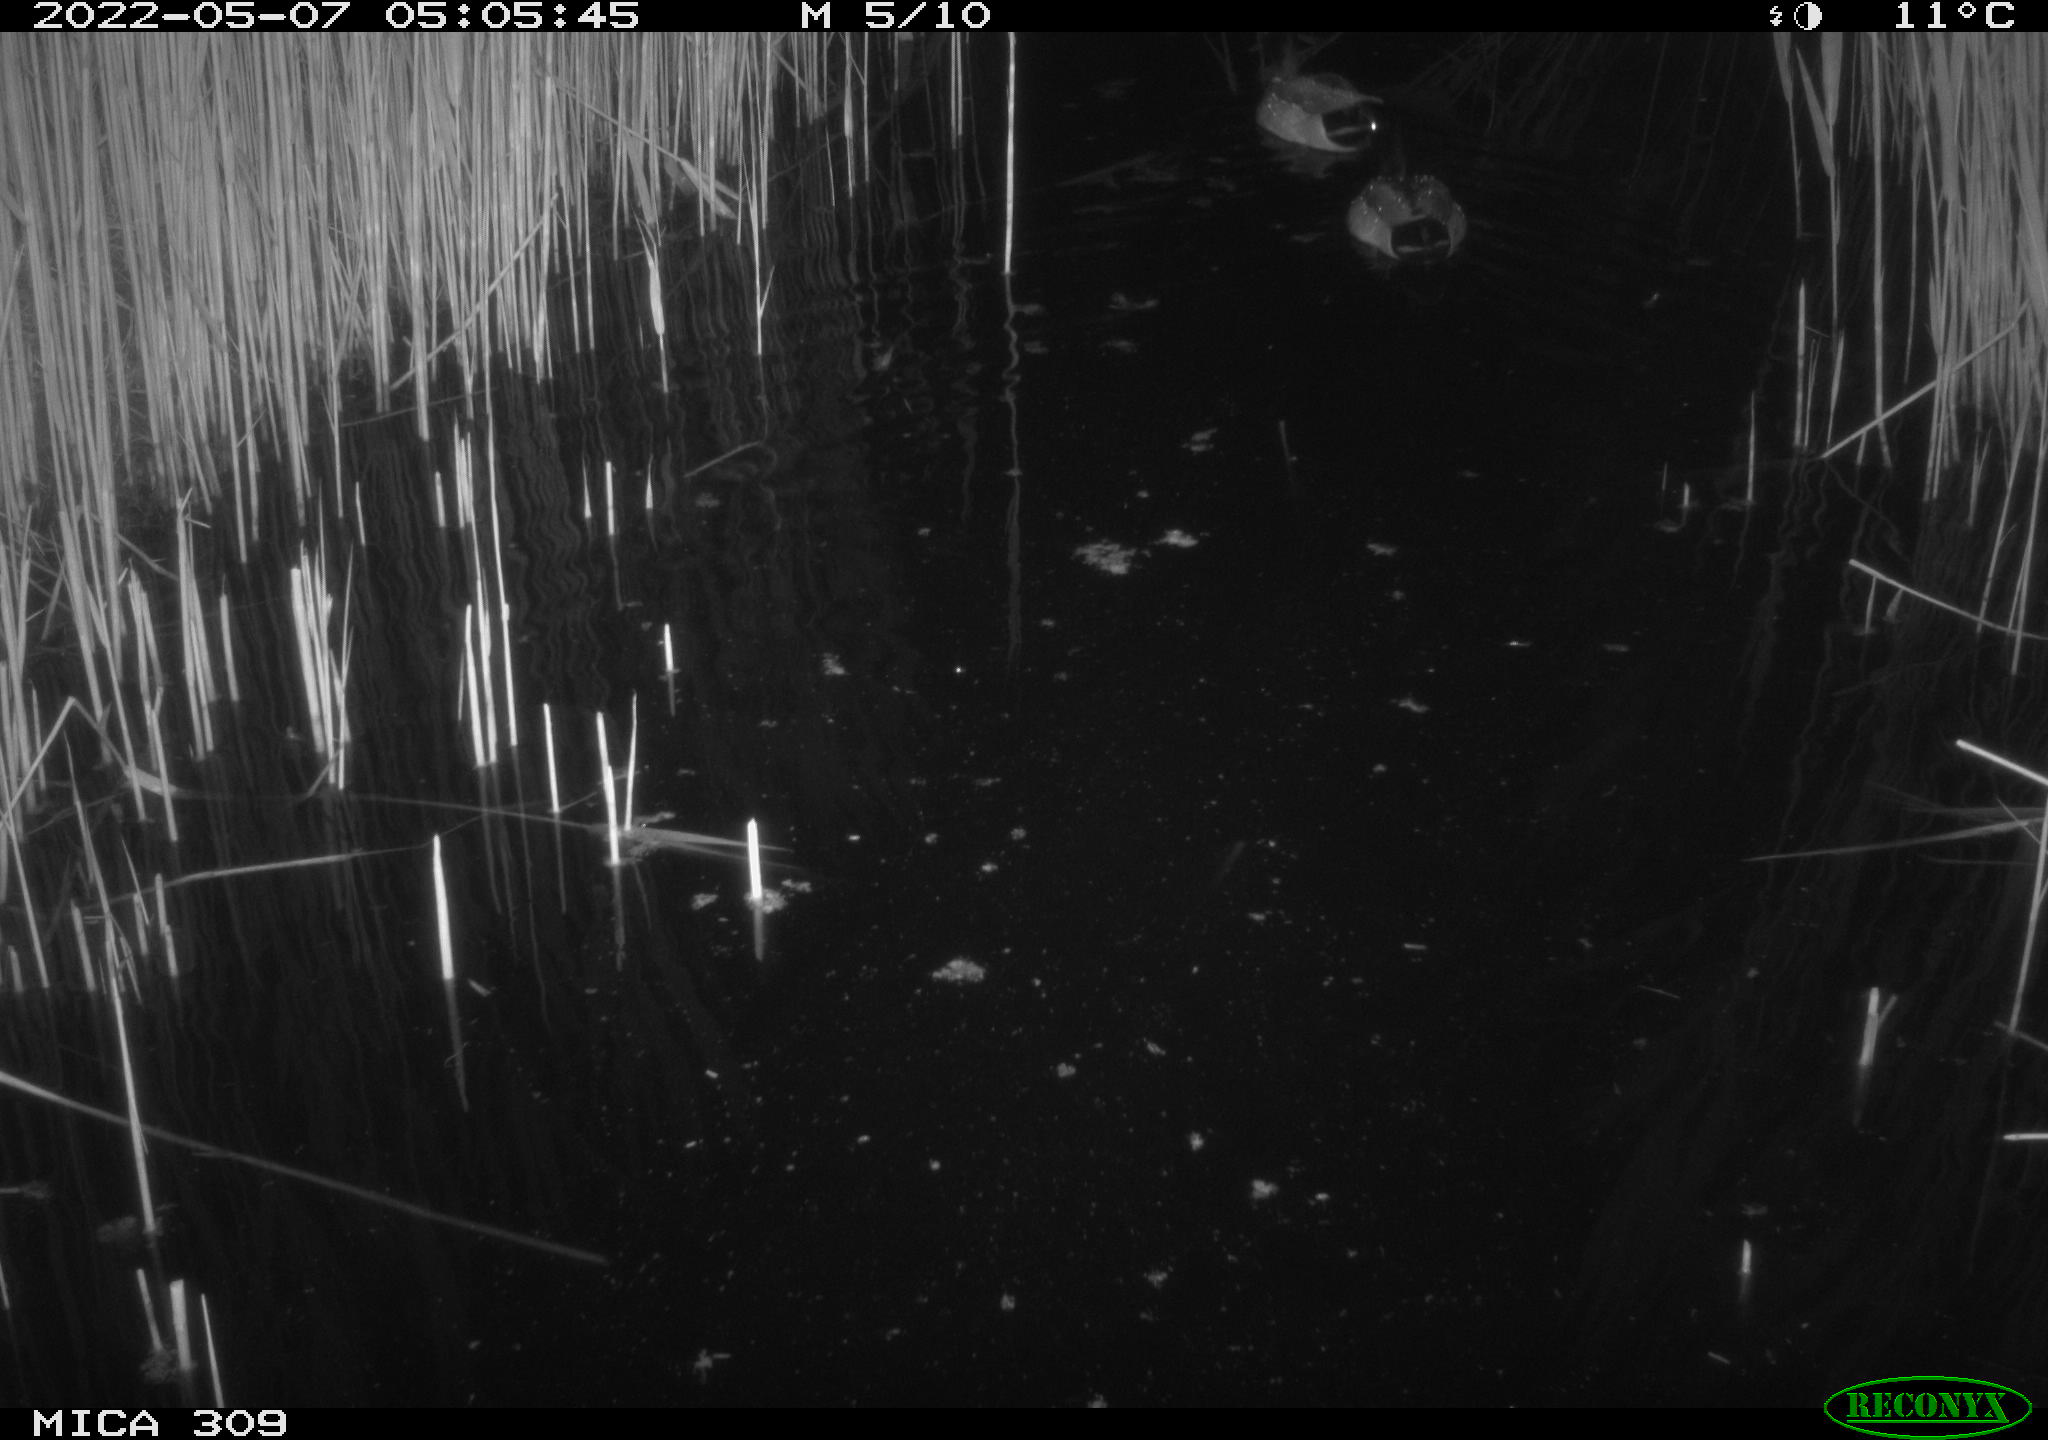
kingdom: Animalia
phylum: Chordata
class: Aves
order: Anseriformes
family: Anatidae
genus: Anas
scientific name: Anas platyrhynchos
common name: Mallard
